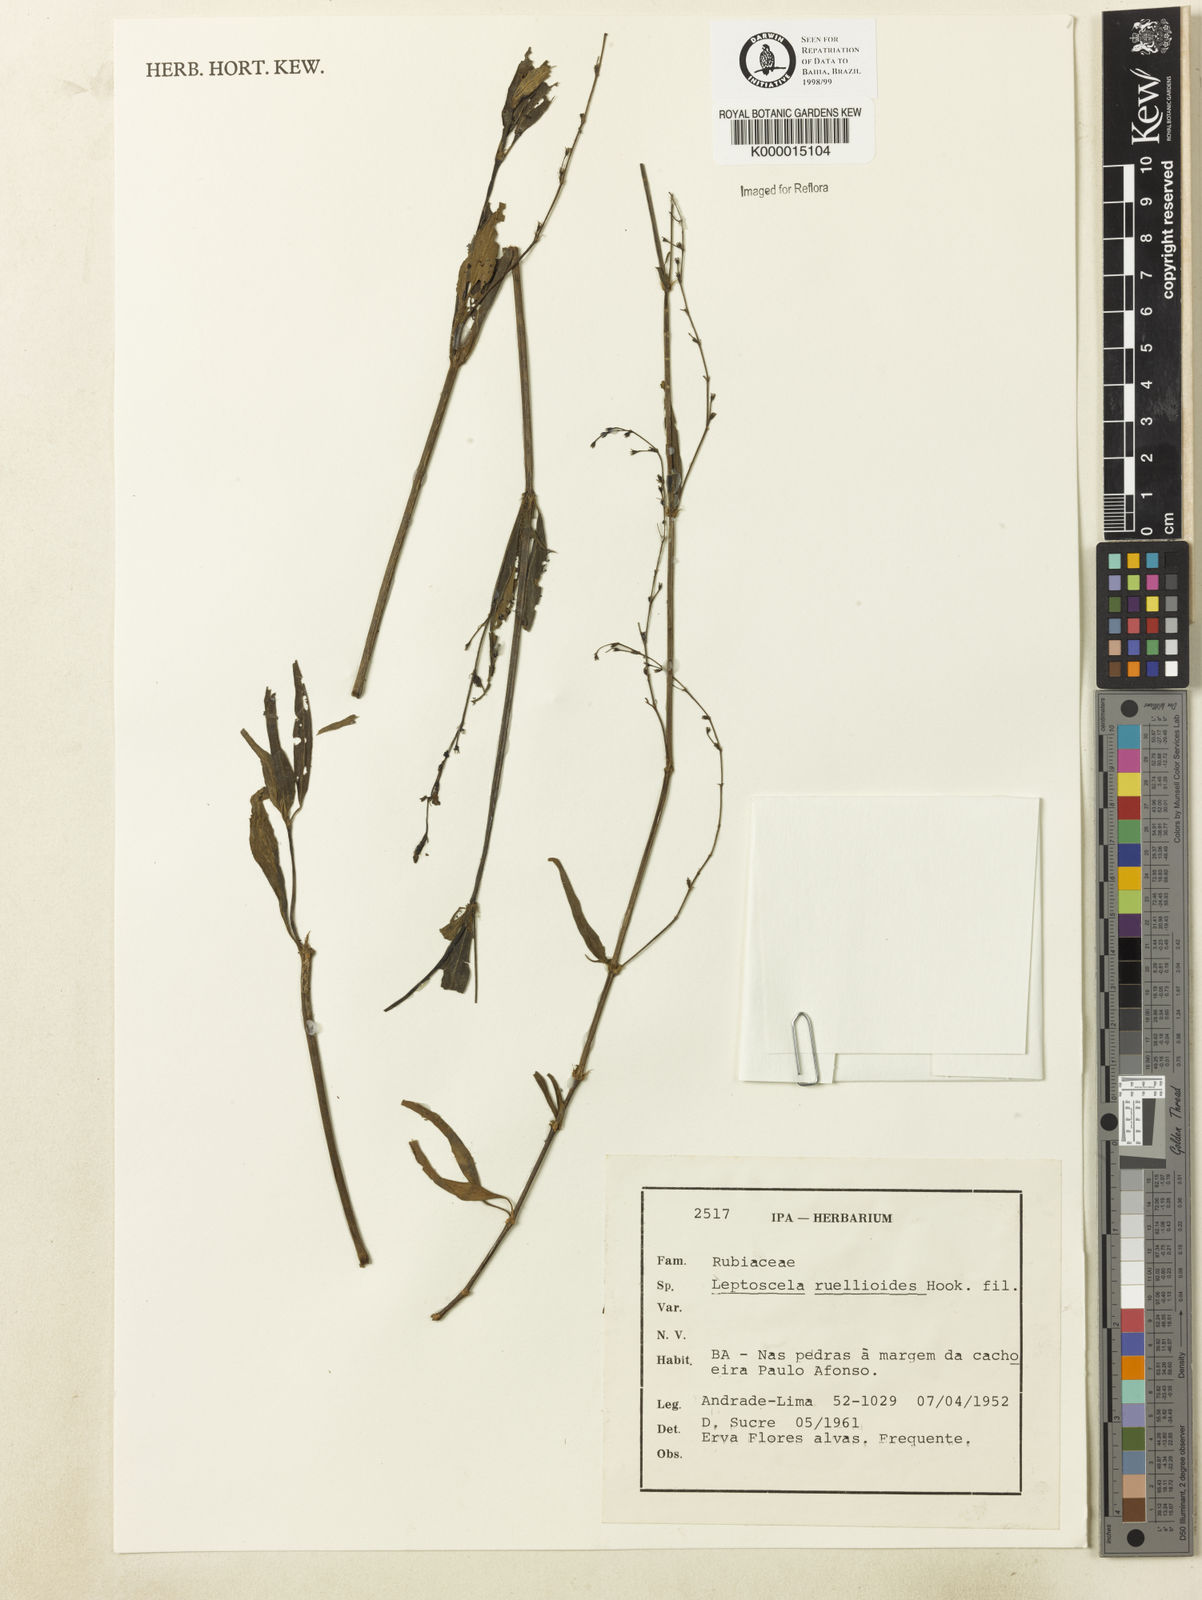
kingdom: Plantae
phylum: Tracheophyta
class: Magnoliopsida
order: Gentianales
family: Rubiaceae
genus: Leptoscela
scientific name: Leptoscela
